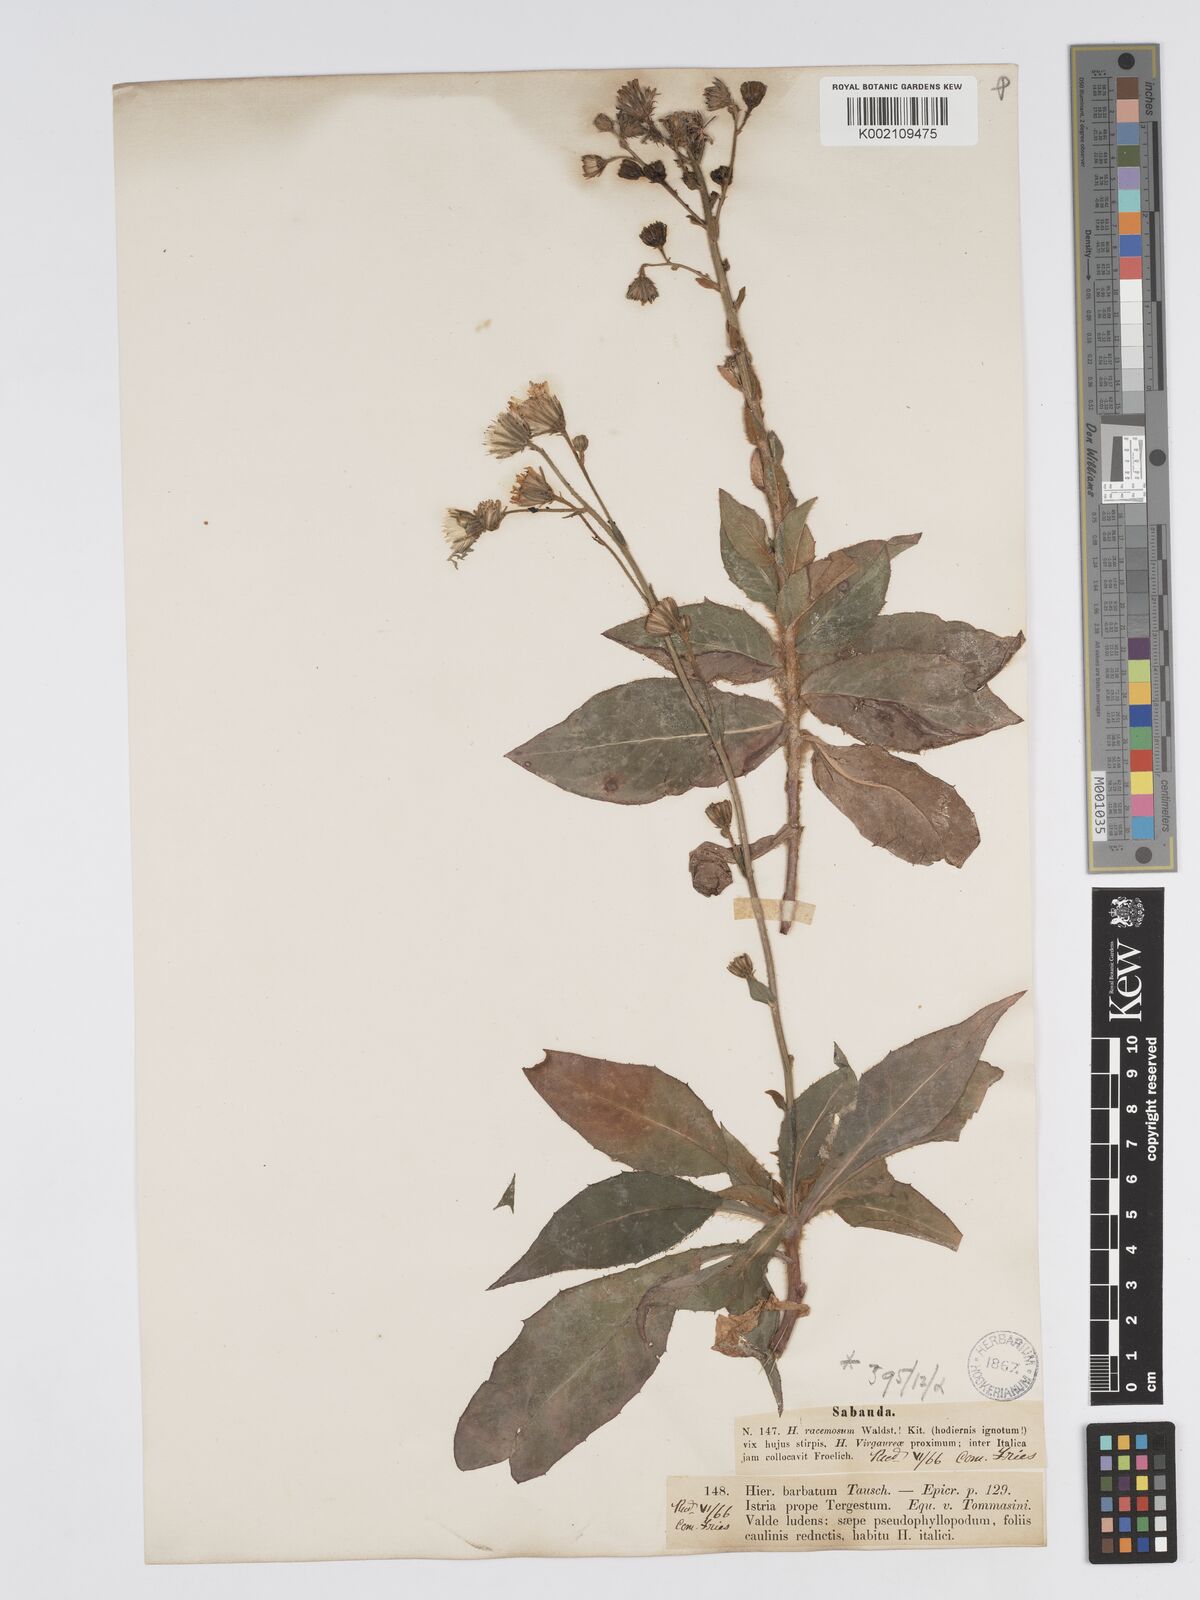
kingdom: Plantae
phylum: Tracheophyta
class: Magnoliopsida
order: Asterales
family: Asteraceae
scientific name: Asteraceae
